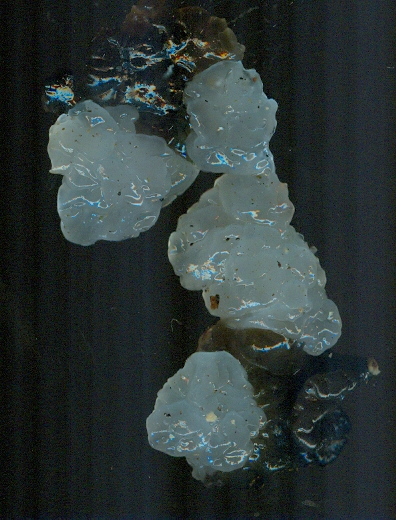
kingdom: Fungi
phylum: Basidiomycota
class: Agaricomycetes
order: Auriculariales
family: Auriculariaceae
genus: Exidia
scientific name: Exidia nigricans
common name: almindelig bævretop
